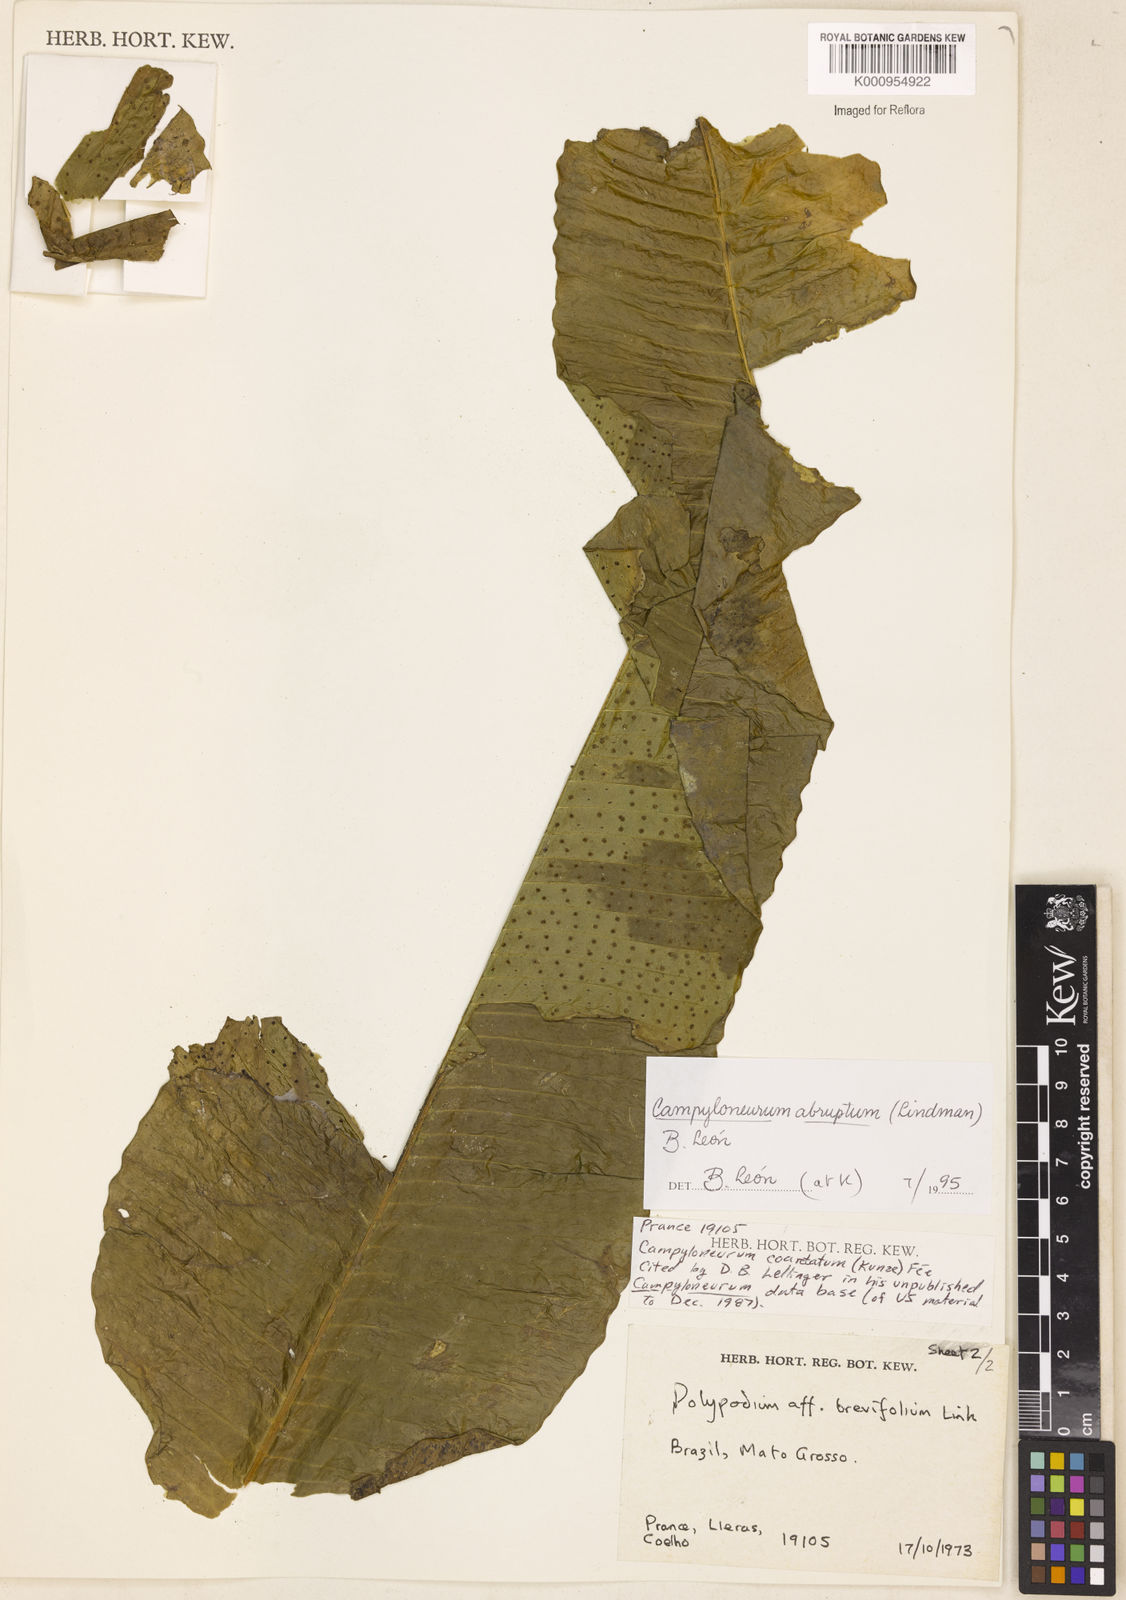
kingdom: Plantae
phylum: Tracheophyta
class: Polypodiopsida
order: Polypodiales
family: Polypodiaceae
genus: Campyloneurum
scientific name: Campyloneurum
